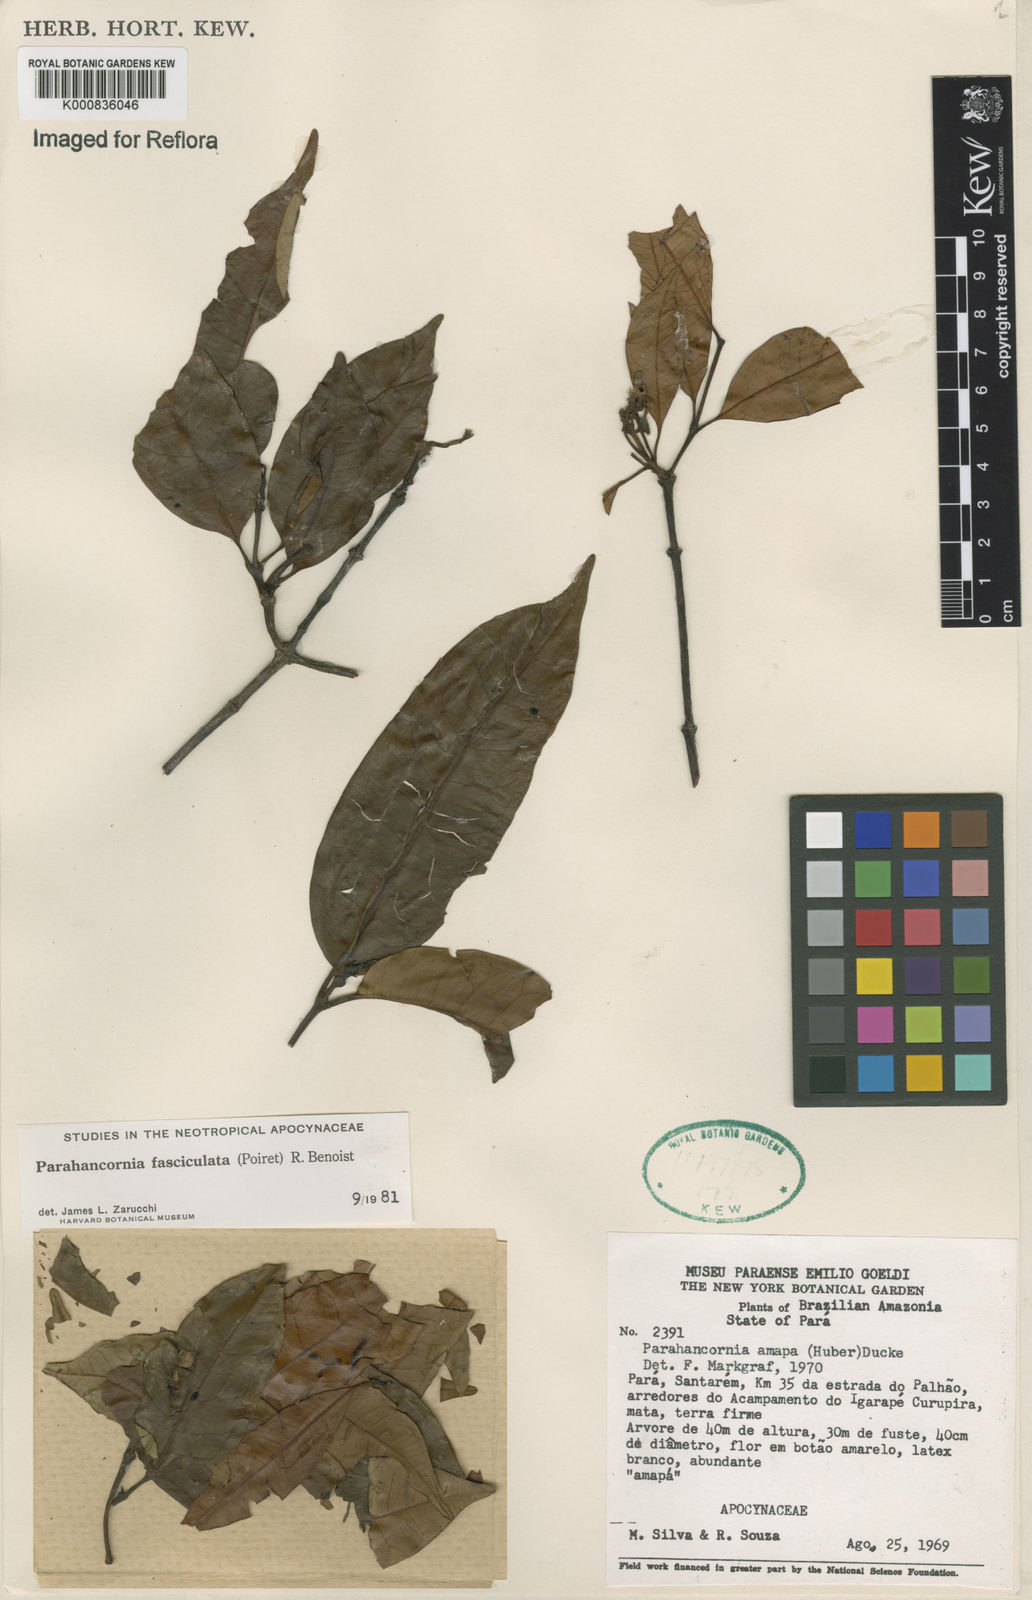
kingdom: Plantae
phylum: Tracheophyta
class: Magnoliopsida
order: Gentianales
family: Apocynaceae
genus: Parahancornia
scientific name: Parahancornia fasciculata
